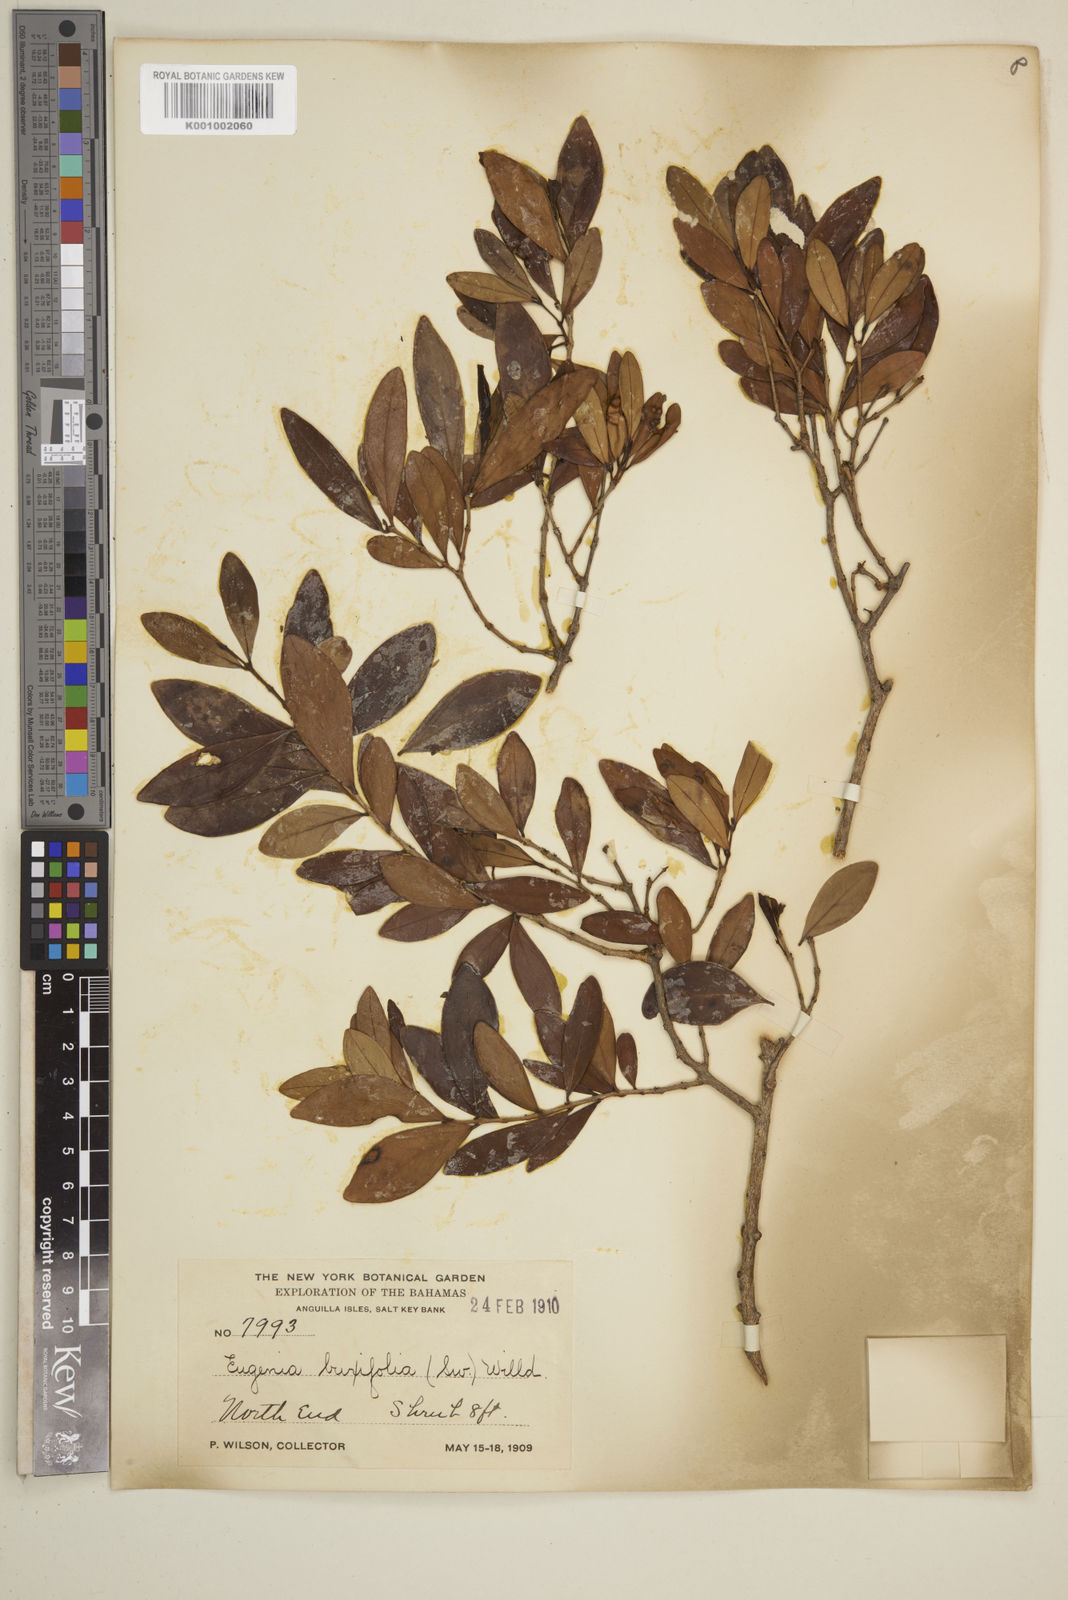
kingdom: Plantae
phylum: Tracheophyta
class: Magnoliopsida
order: Myrtales
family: Myrtaceae
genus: Eugenia
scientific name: Eugenia buxifolia
